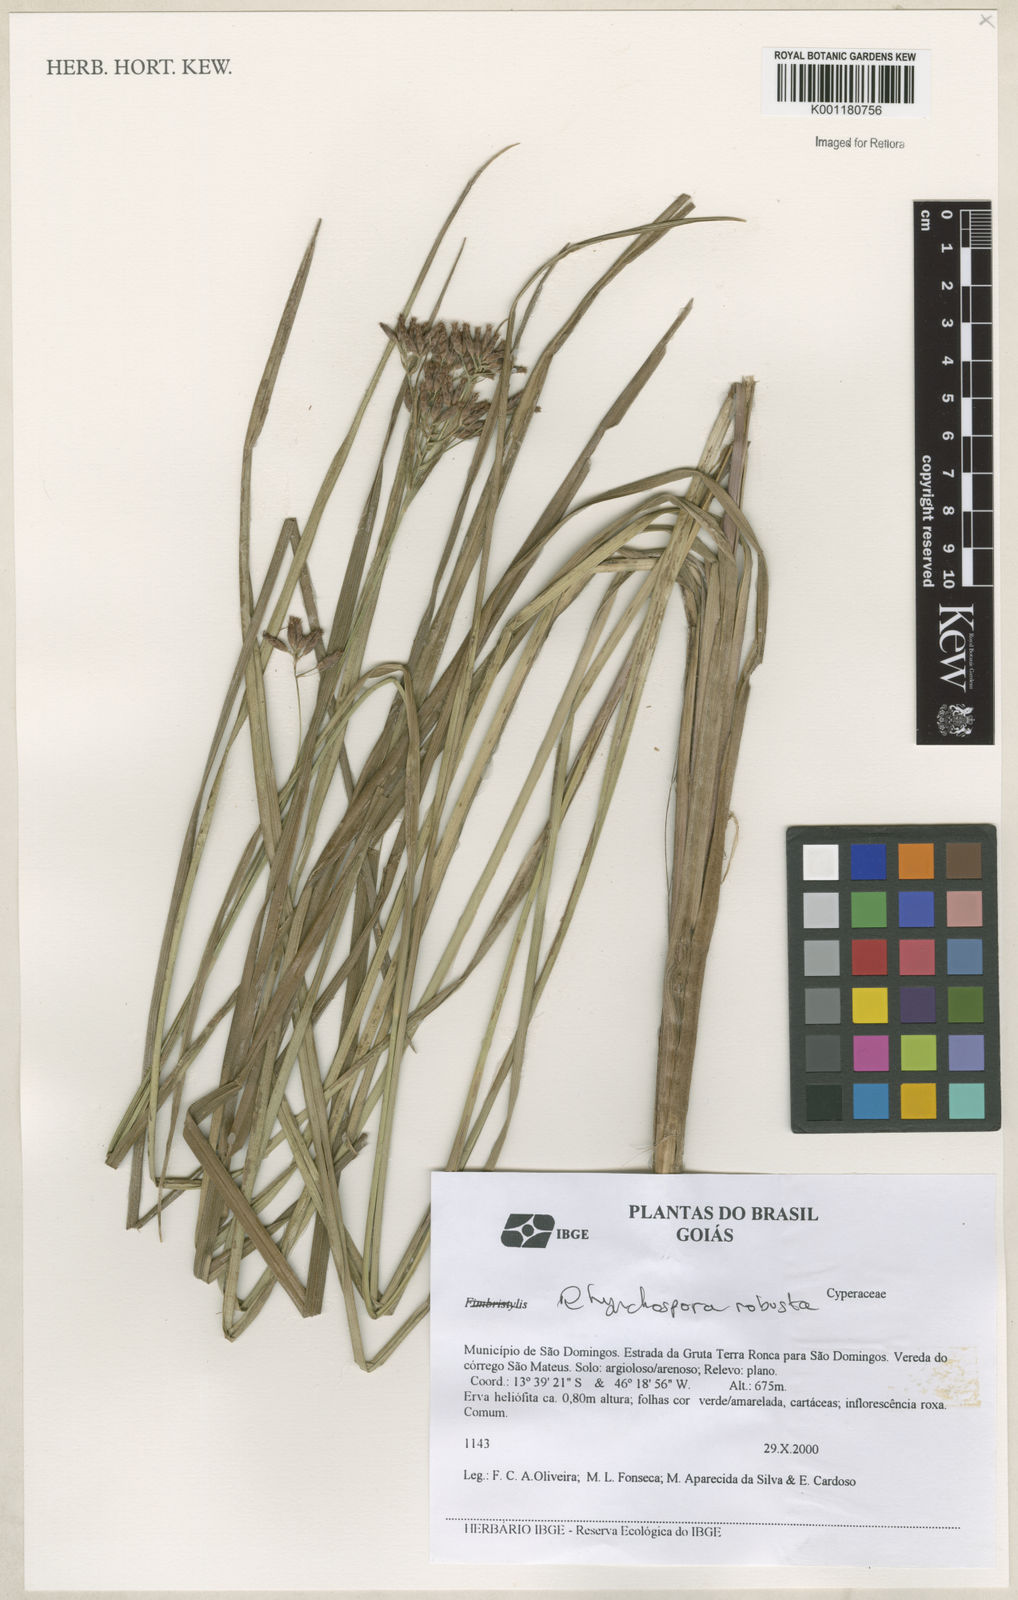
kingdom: Plantae
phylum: Tracheophyta
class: Liliopsida
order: Poales
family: Cyperaceae
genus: Rhynchospora
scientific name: Rhynchospora robusta
